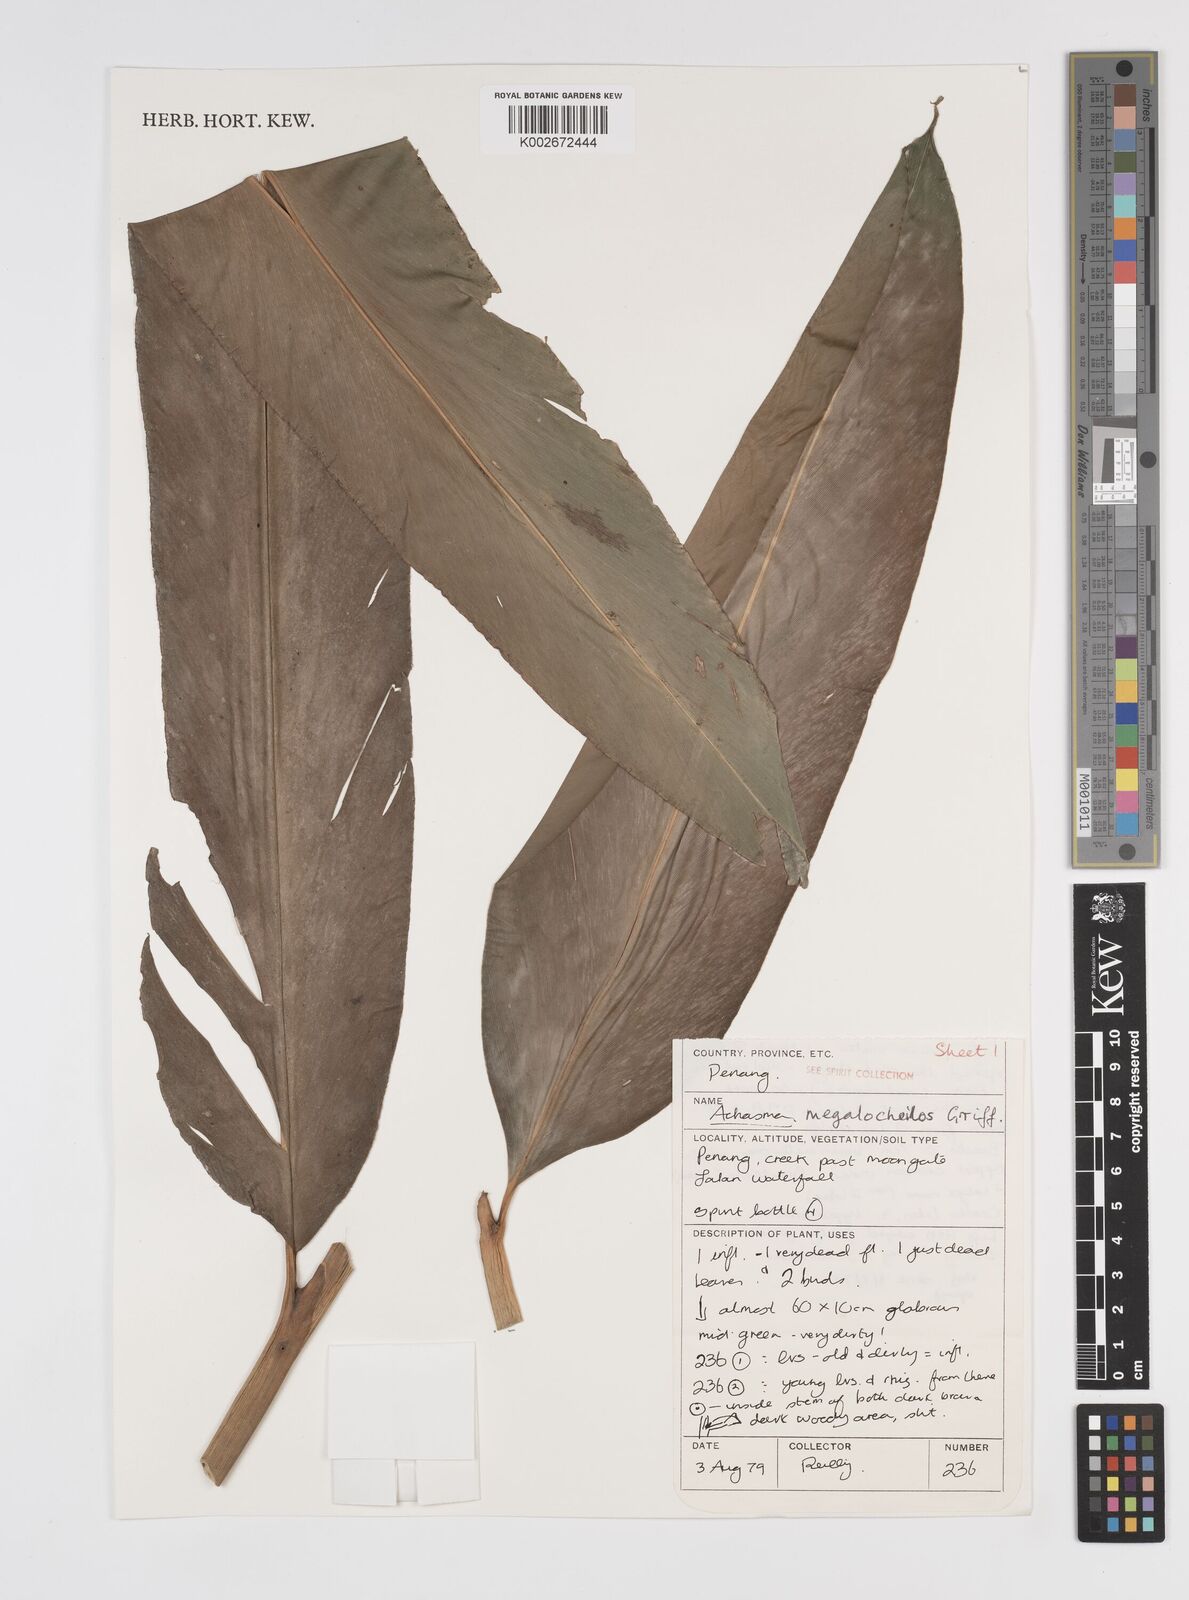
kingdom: Plantae
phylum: Tracheophyta
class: Liliopsida
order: Zingiberales
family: Zingiberaceae
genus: Etlingera
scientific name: Etlingera littoralis
